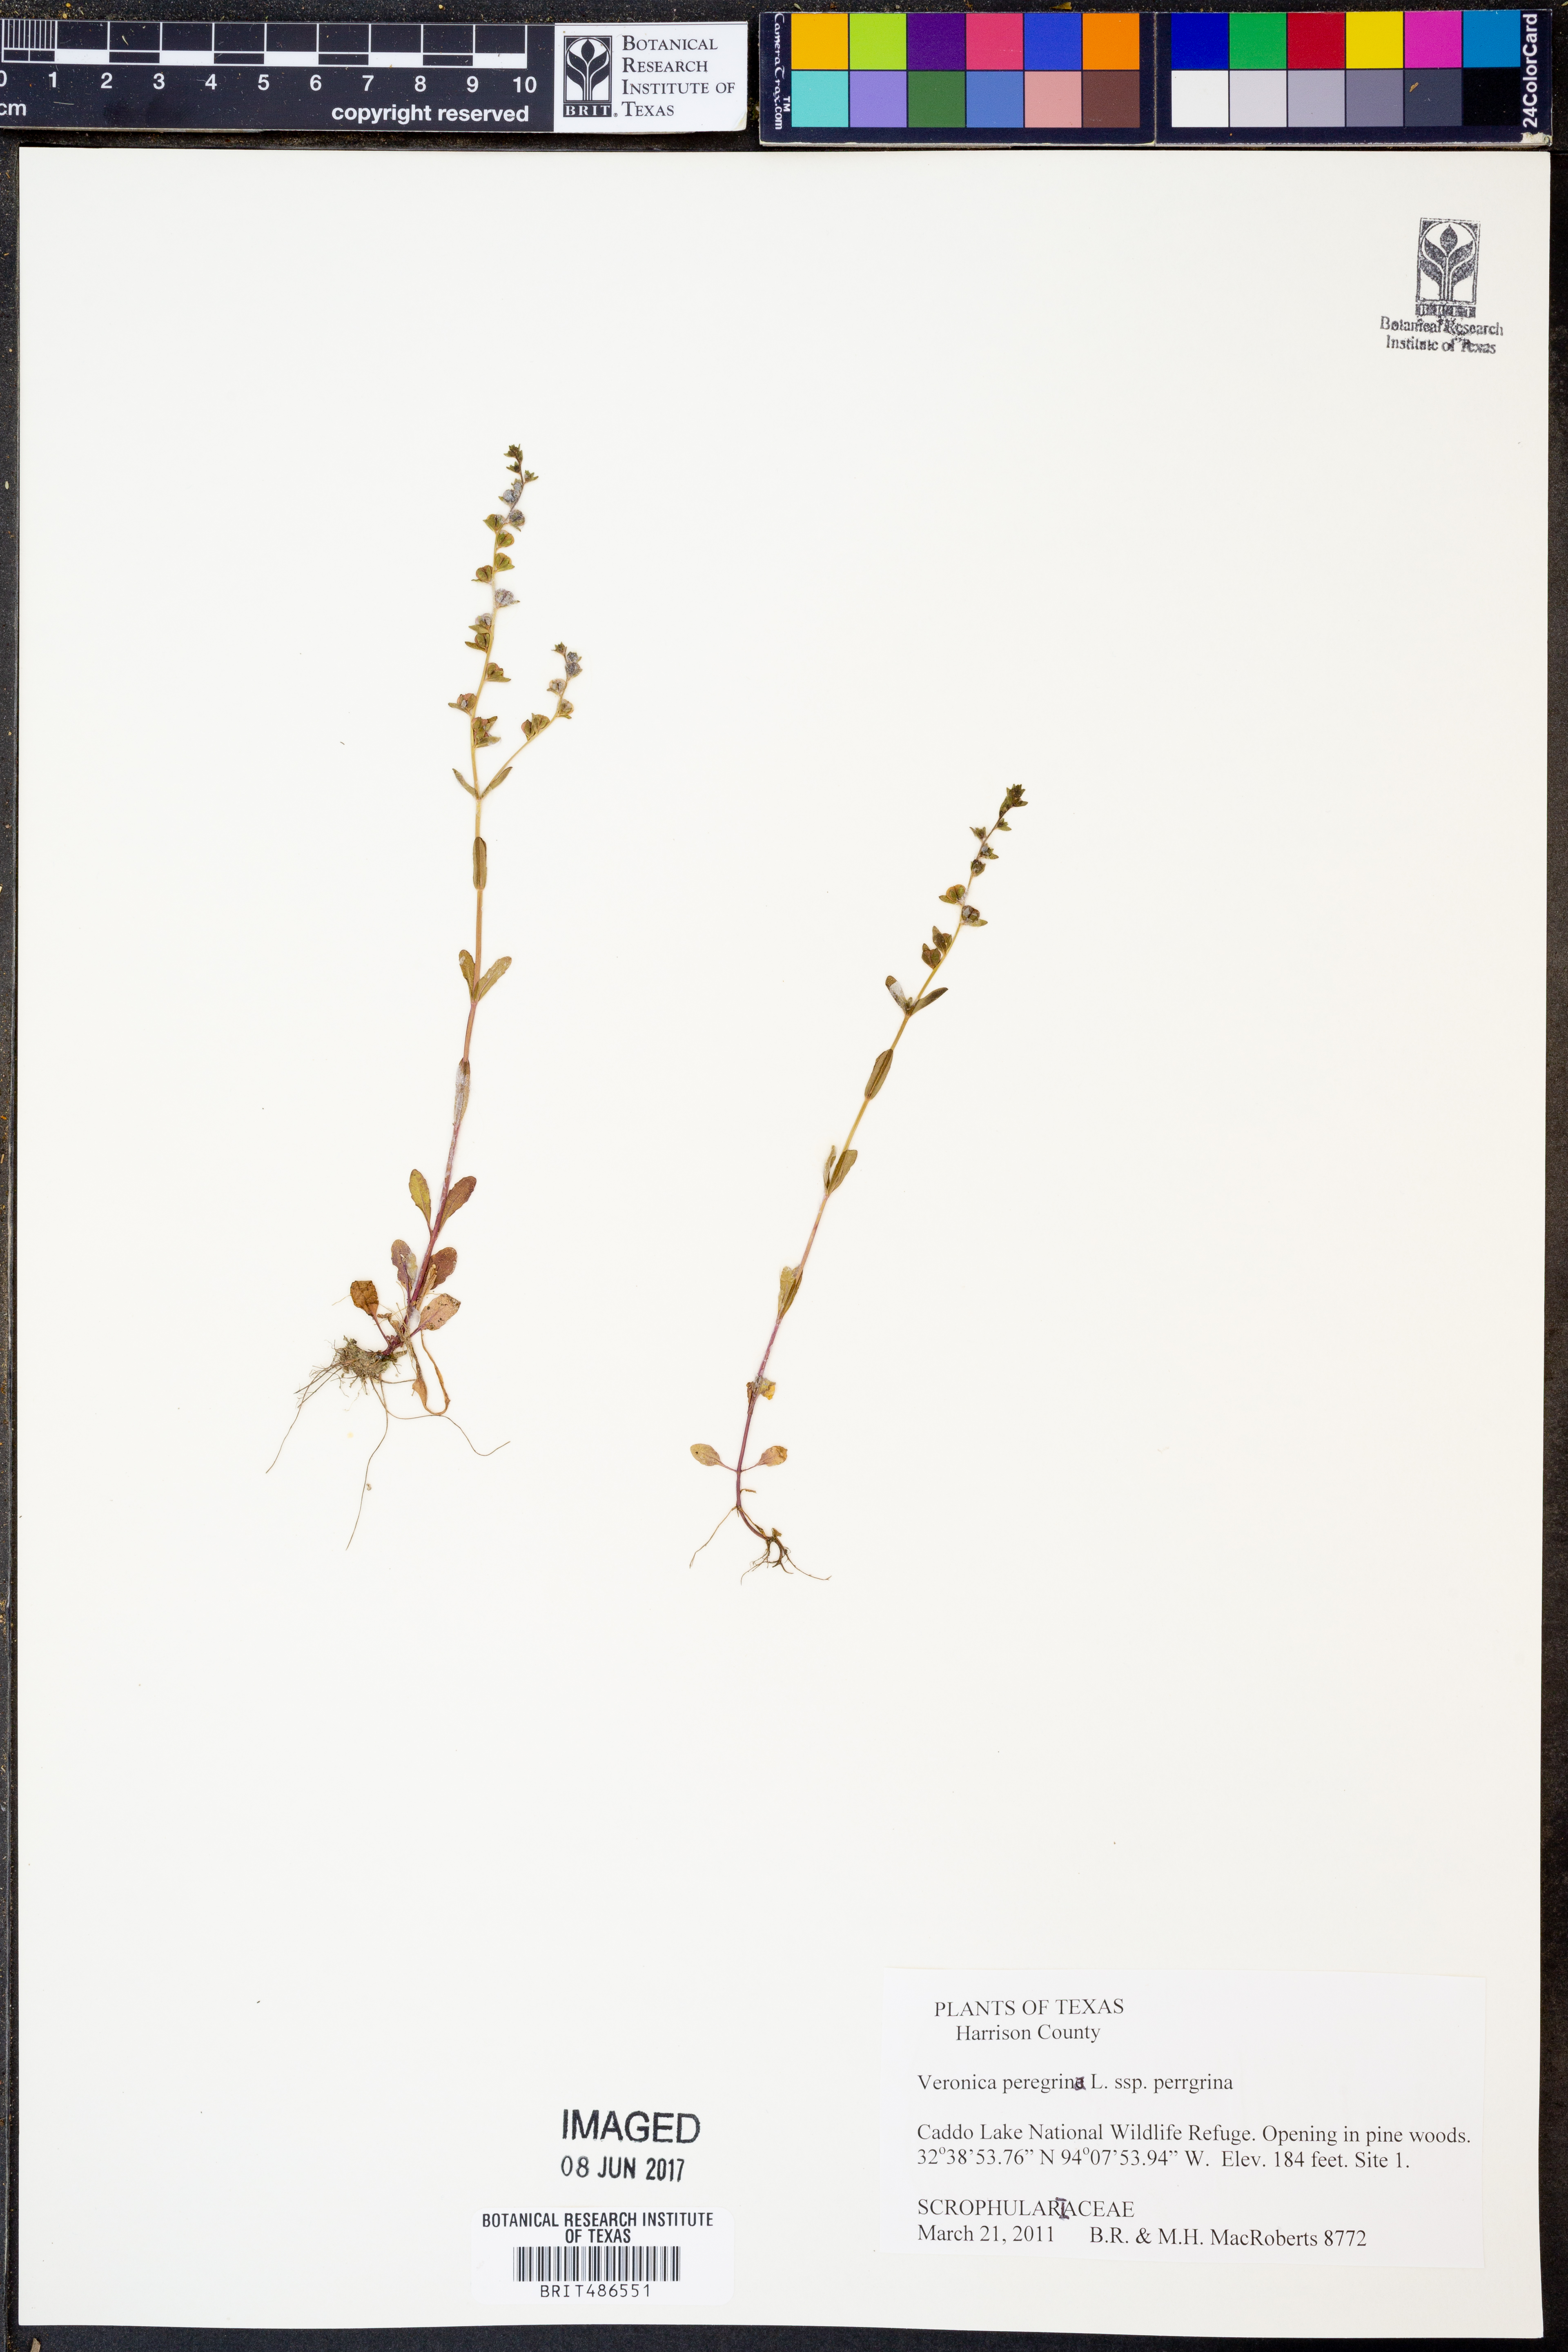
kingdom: Plantae
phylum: Tracheophyta
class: Magnoliopsida
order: Lamiales
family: Plantaginaceae
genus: Veronica
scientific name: Veronica peregrina
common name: Neckweed
